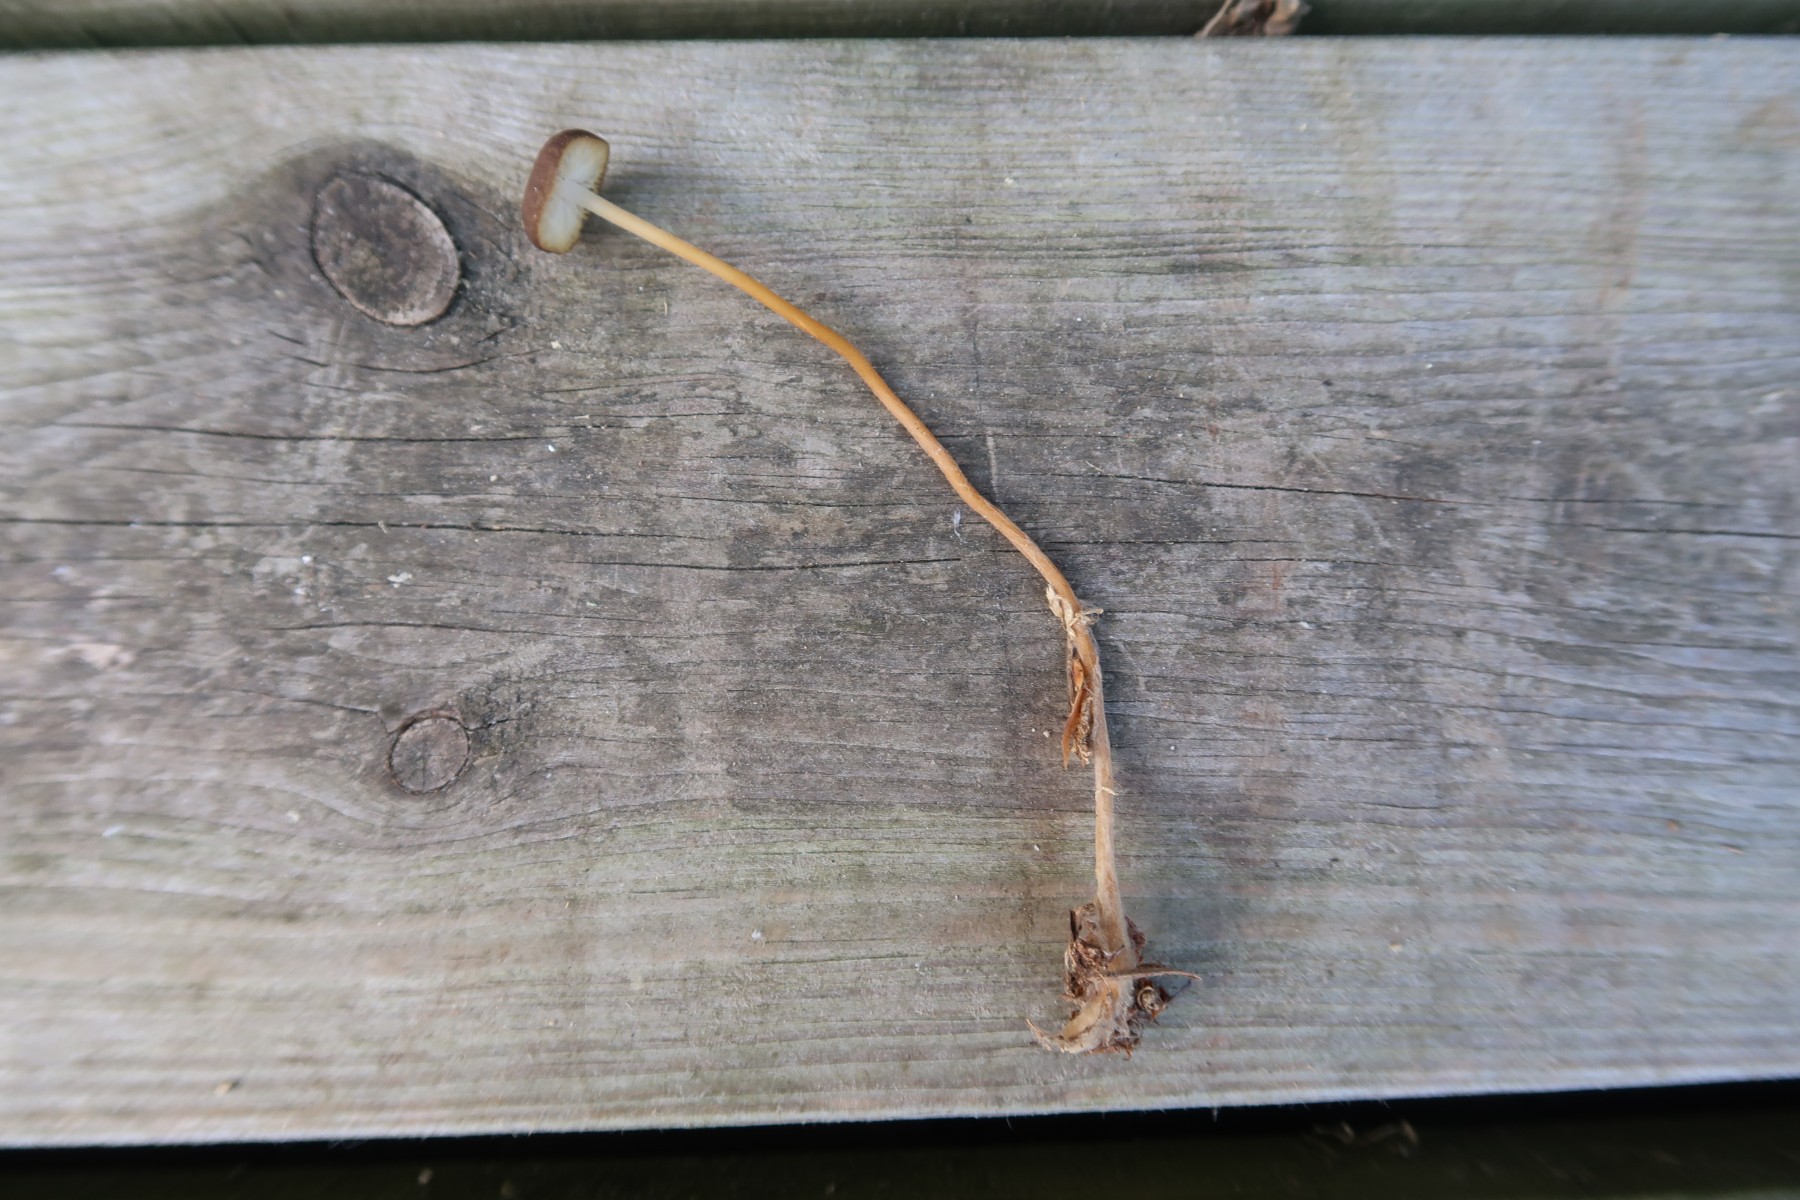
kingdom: Fungi
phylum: Basidiomycota
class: Agaricomycetes
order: Agaricales
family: Physalacriaceae
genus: Strobilurus
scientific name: Strobilurus tenacellus
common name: sommer-koglehat
